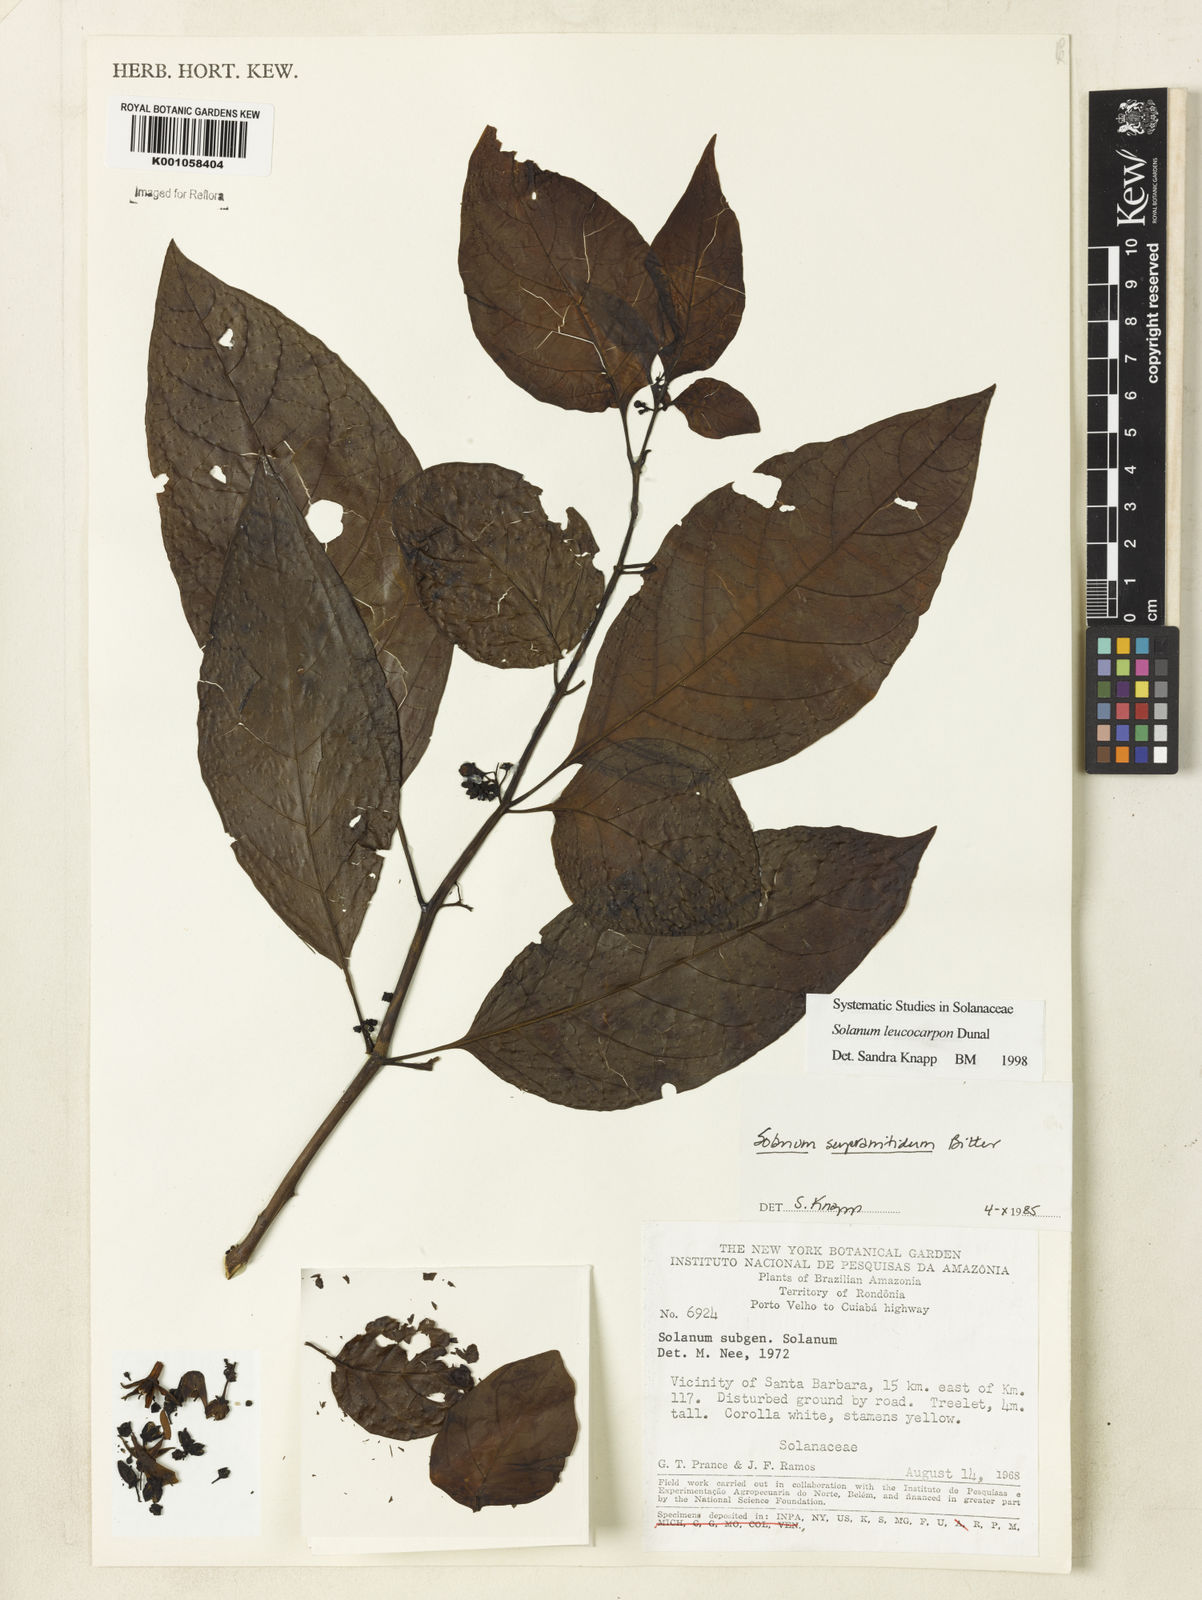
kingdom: Plantae
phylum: Tracheophyta
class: Magnoliopsida
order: Solanales
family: Solanaceae
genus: Solanum
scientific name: Solanum leucocarpon
